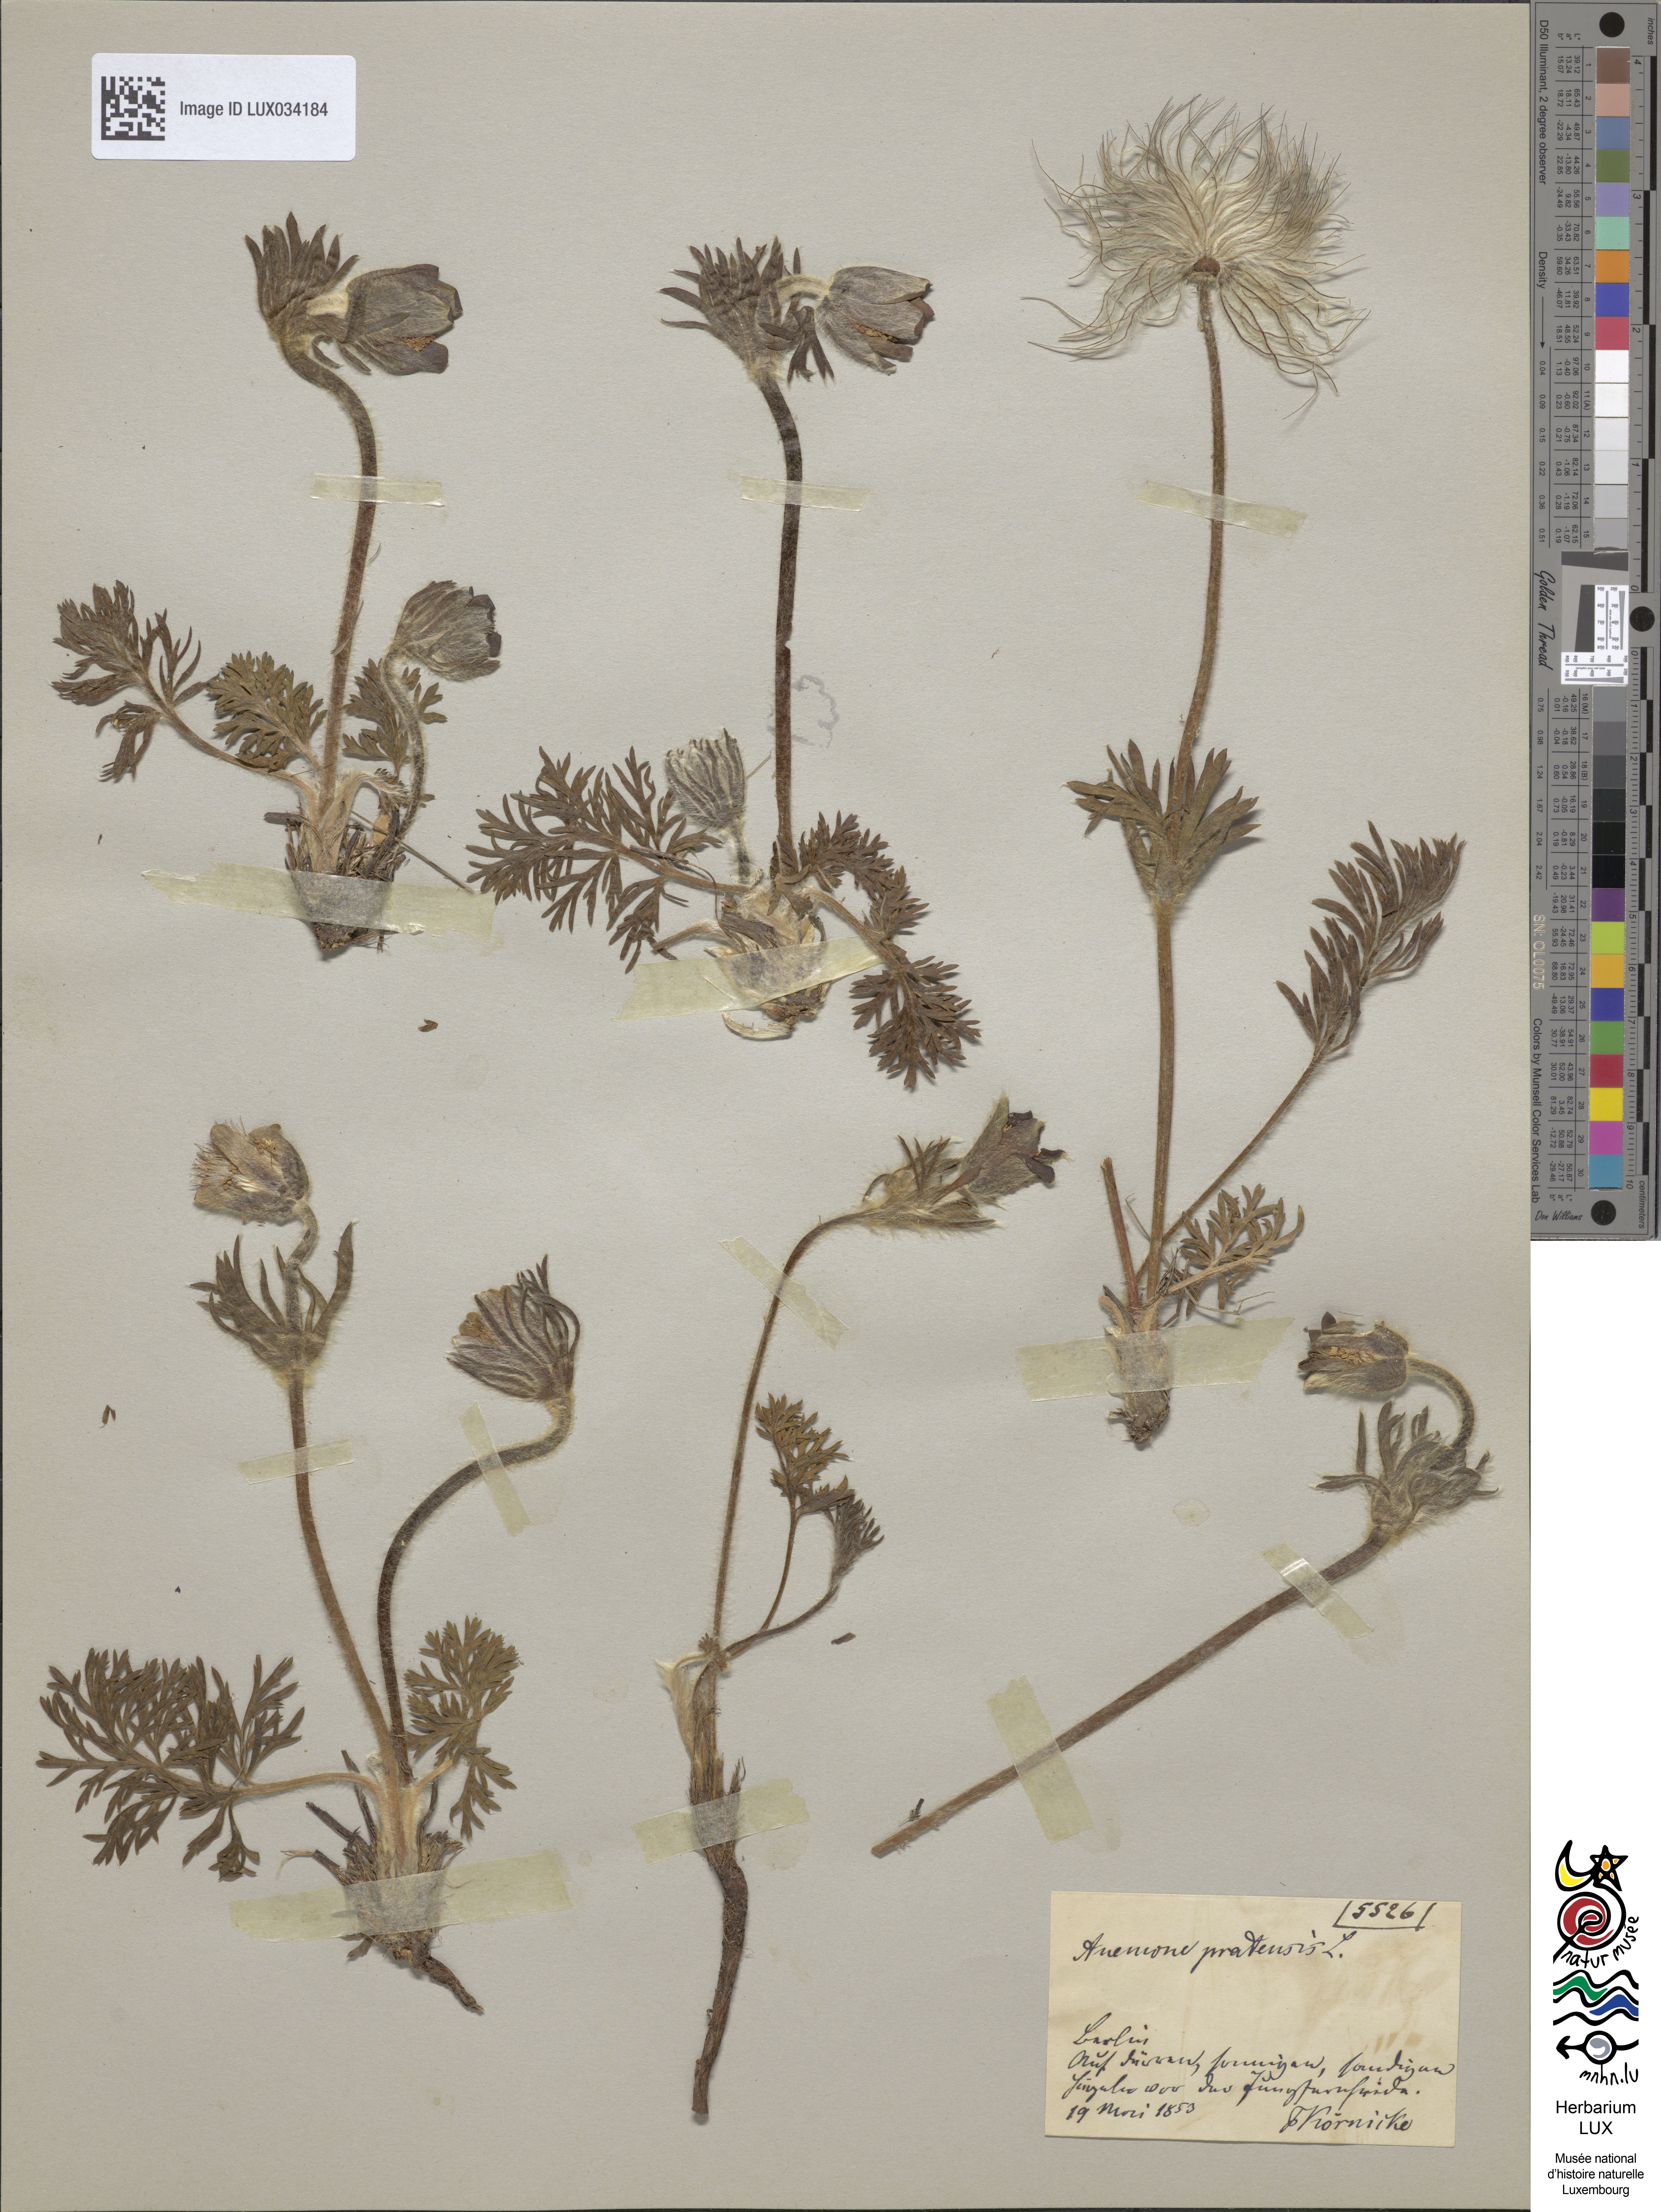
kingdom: Plantae
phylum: Tracheophyta
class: Magnoliopsida
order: Ranunculales
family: Ranunculaceae
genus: Pulsatilla
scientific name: Pulsatilla pratensis
